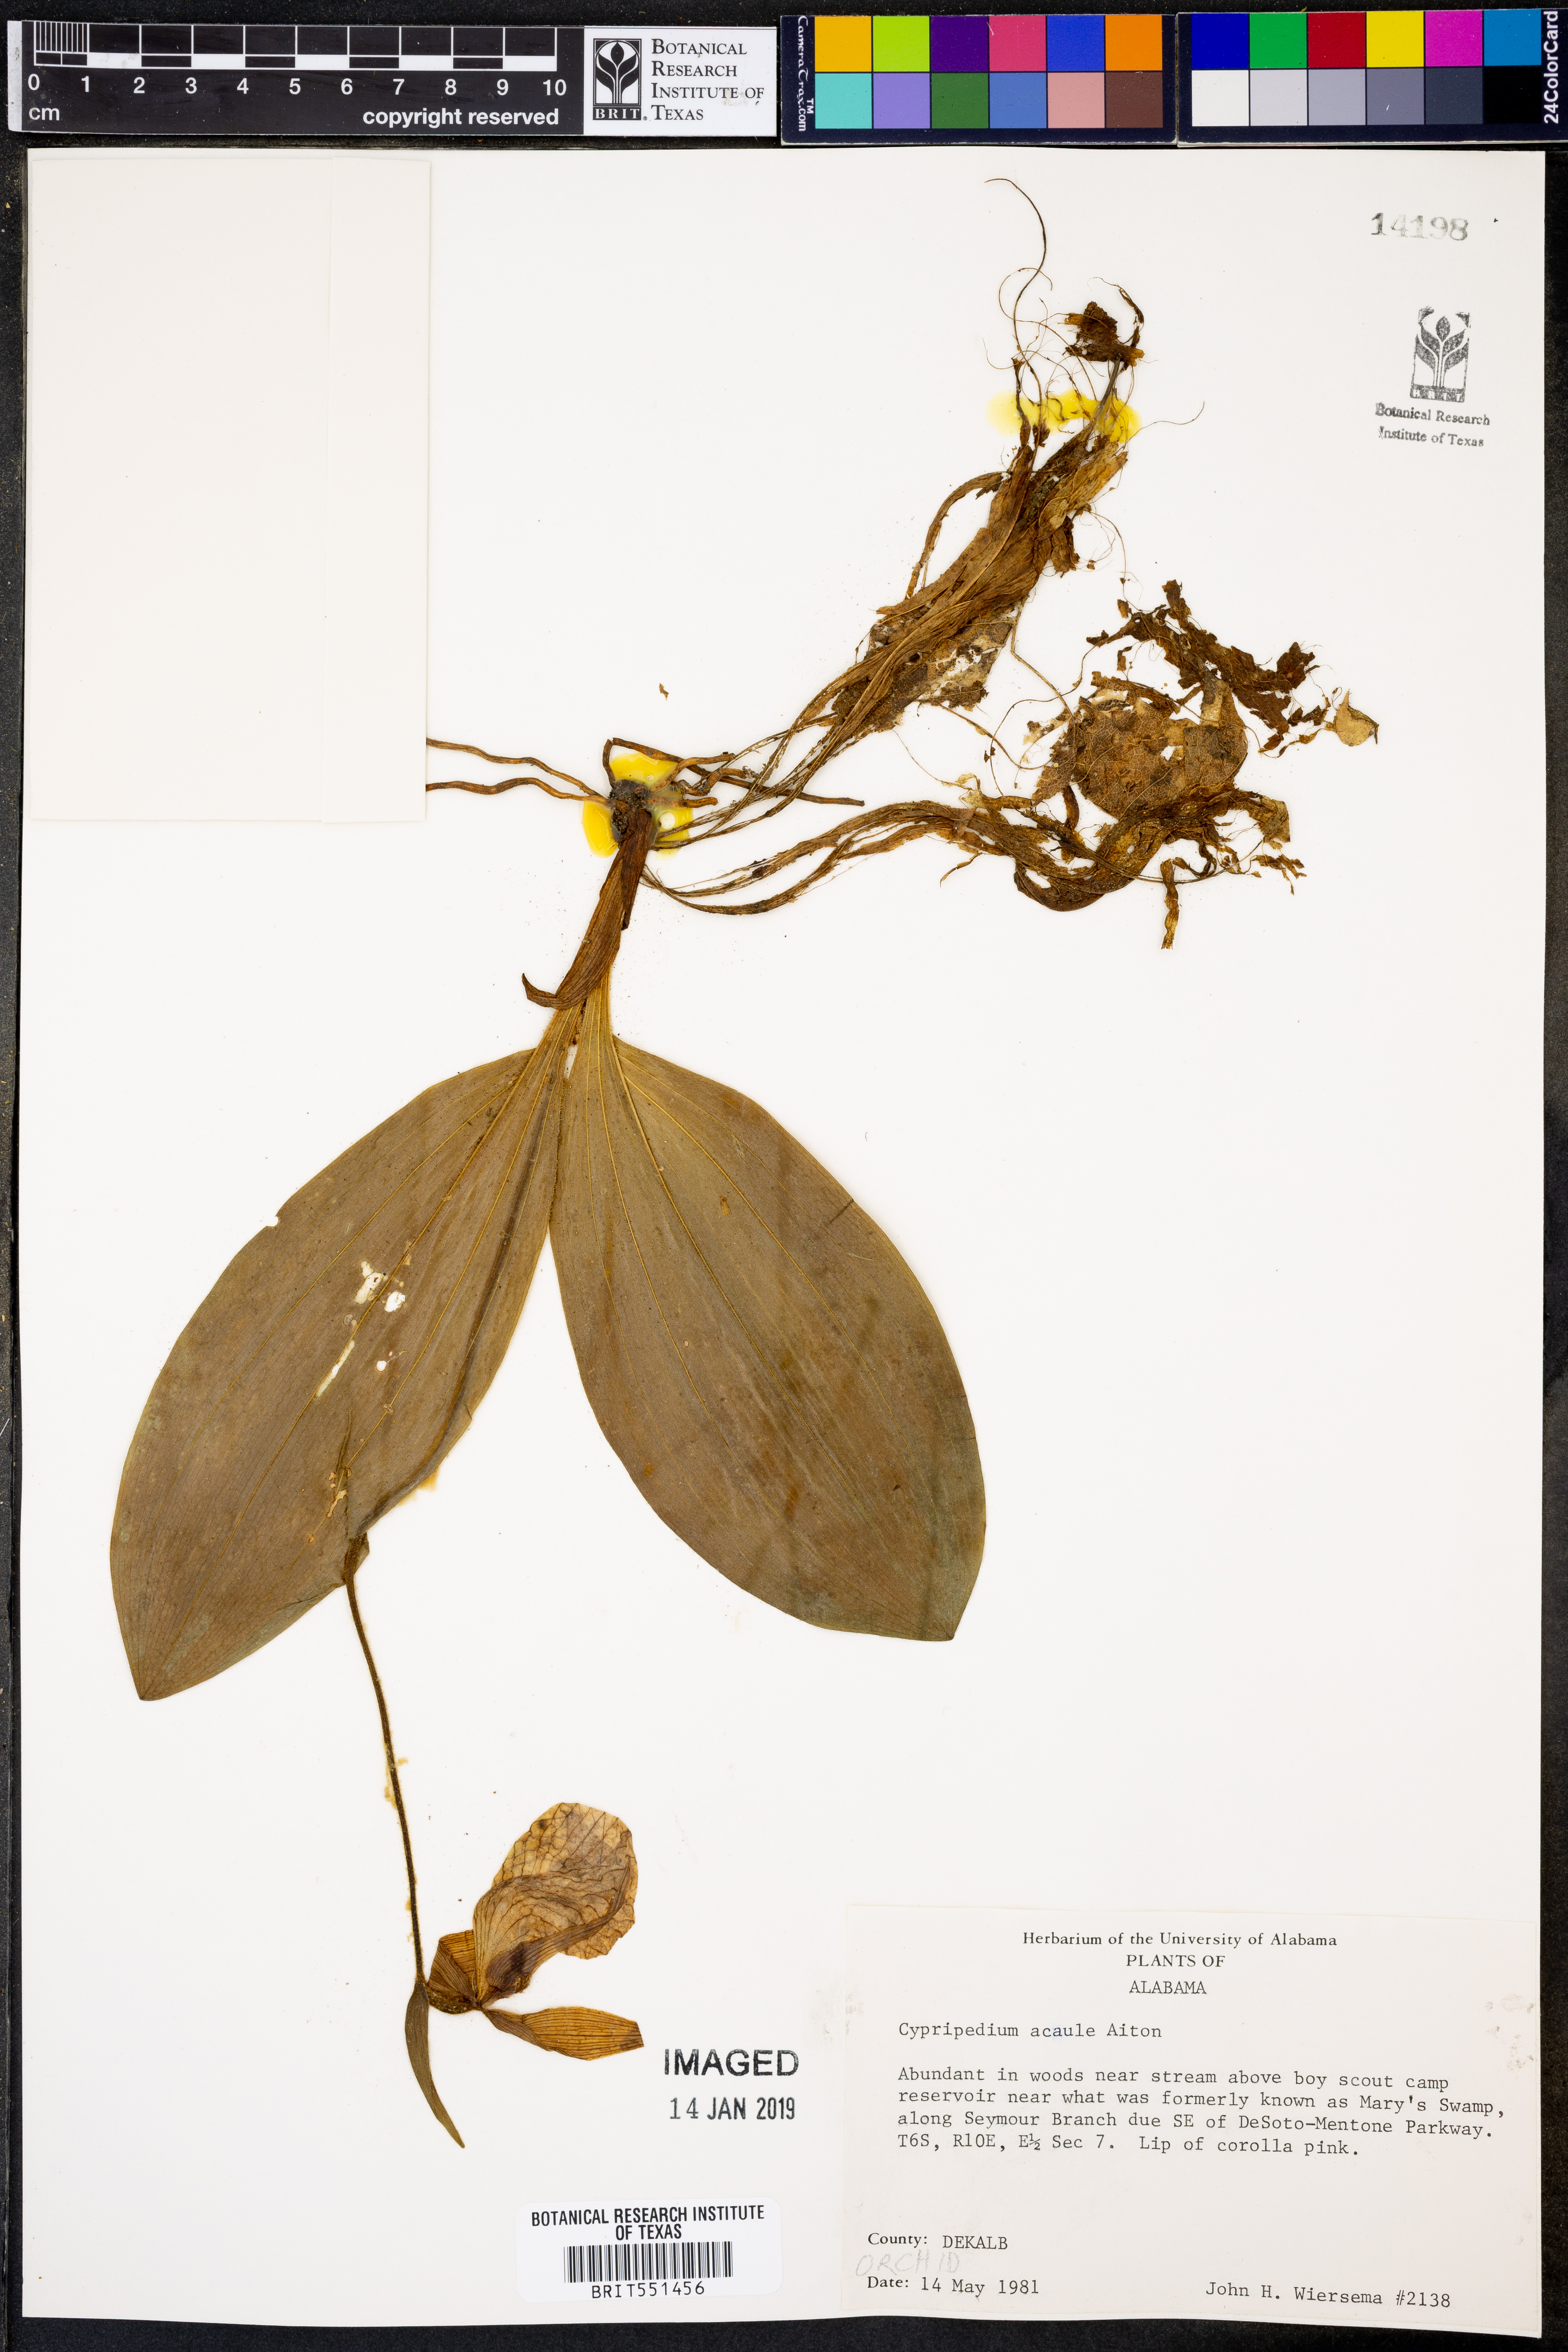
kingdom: Plantae
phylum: Tracheophyta
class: Liliopsida
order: Asparagales
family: Orchidaceae
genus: Cypripedium
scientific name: Cypripedium acaule
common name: Pink lady's-slipper
